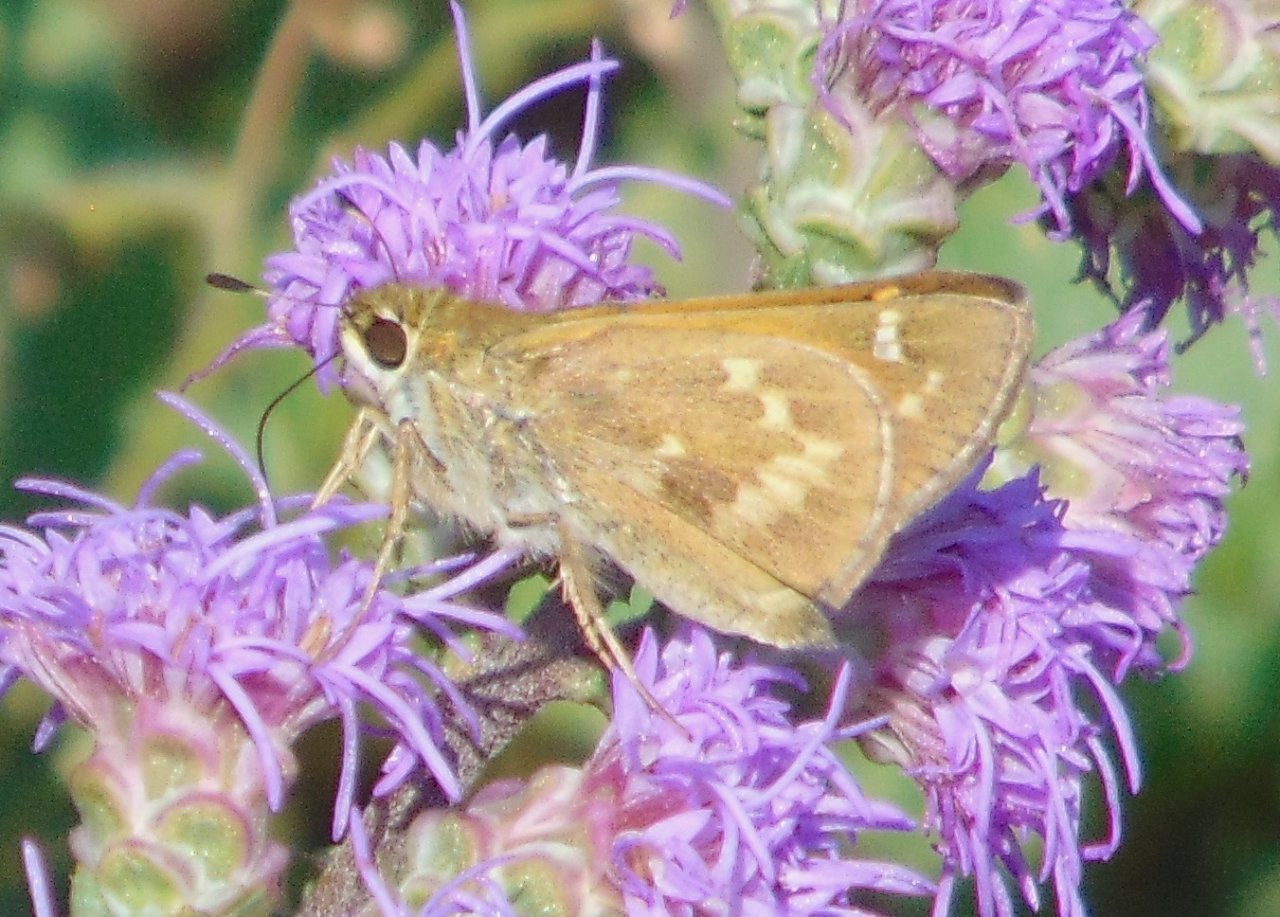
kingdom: Animalia
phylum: Arthropoda
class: Insecta
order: Lepidoptera
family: Hesperiidae
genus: Atalopedes
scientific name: Atalopedes campestris
